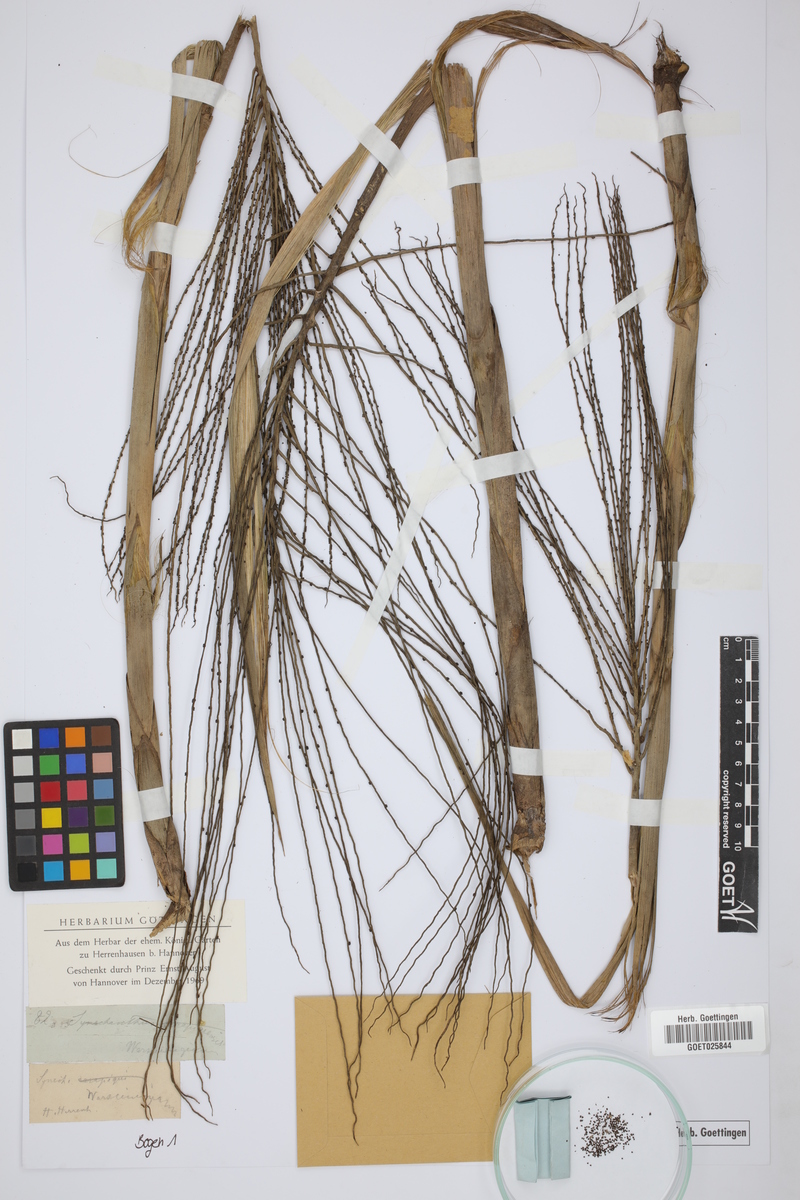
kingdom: Plantae
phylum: Tracheophyta
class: Liliopsida
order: Arecales
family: Arecaceae
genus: Synechanthus
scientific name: Synechanthus warscewiczianus
